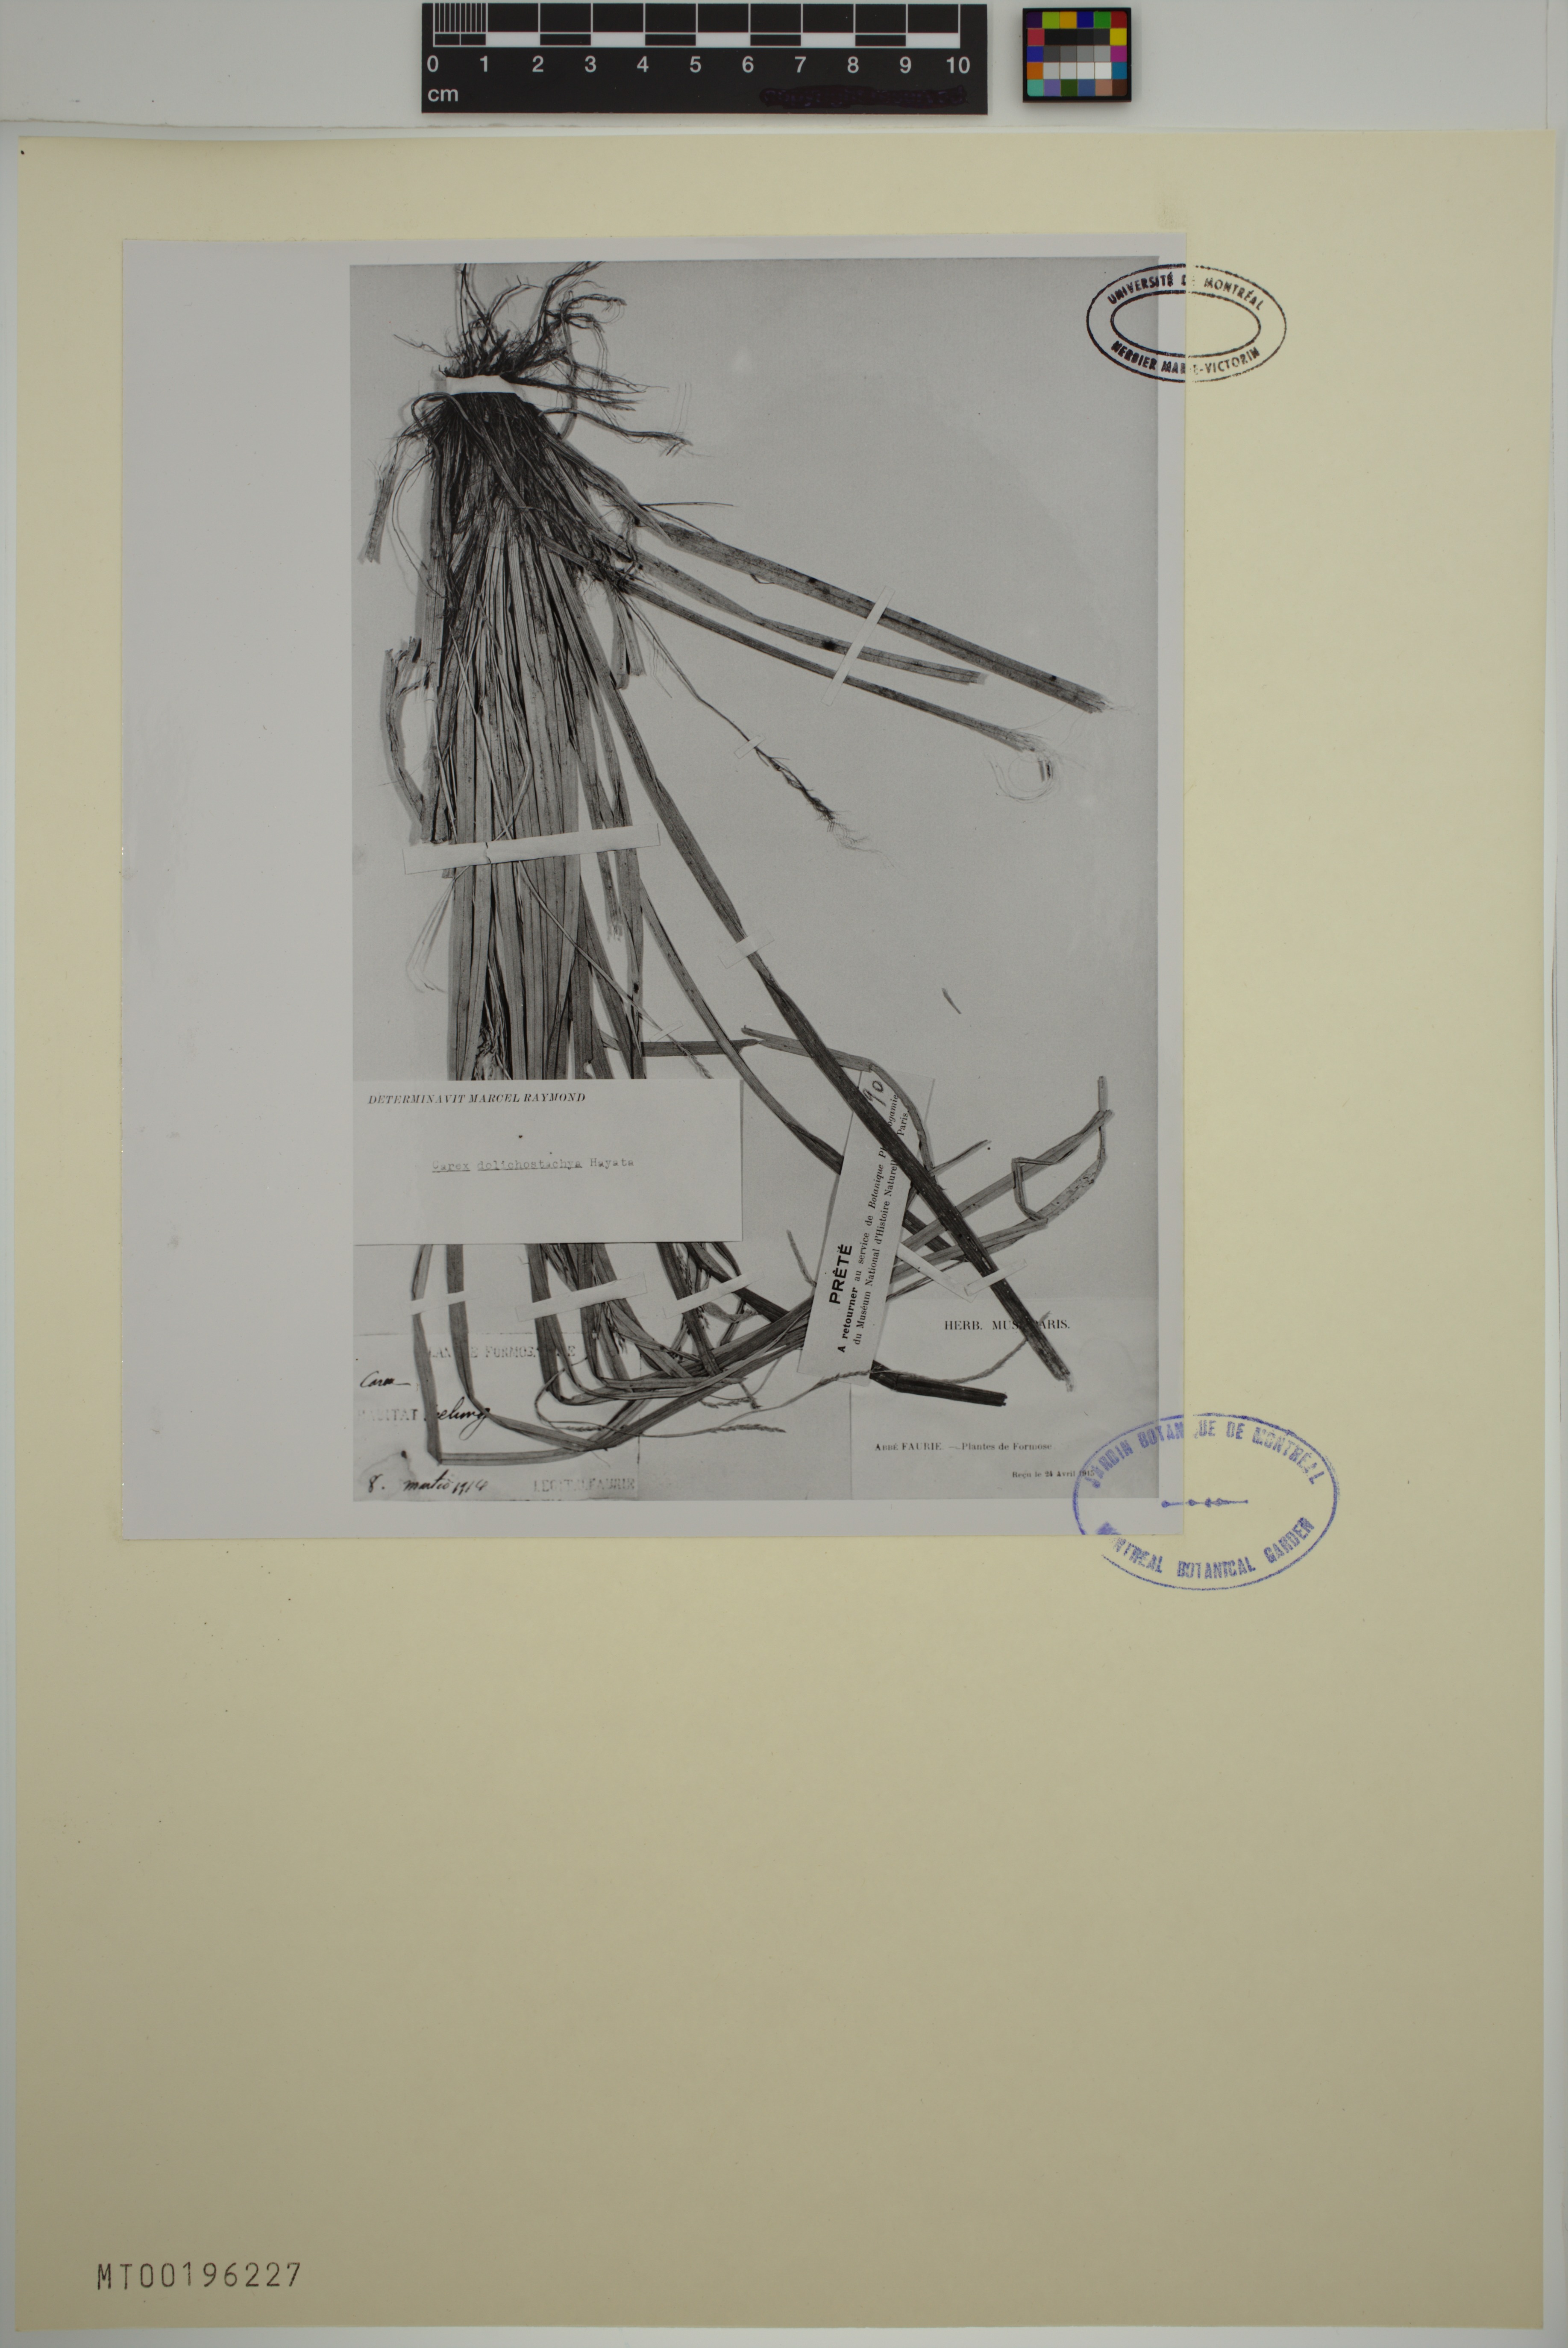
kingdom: Plantae
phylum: Tracheophyta
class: Liliopsida
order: Poales
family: Cyperaceae
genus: Carex
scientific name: Carex dolichostachya
